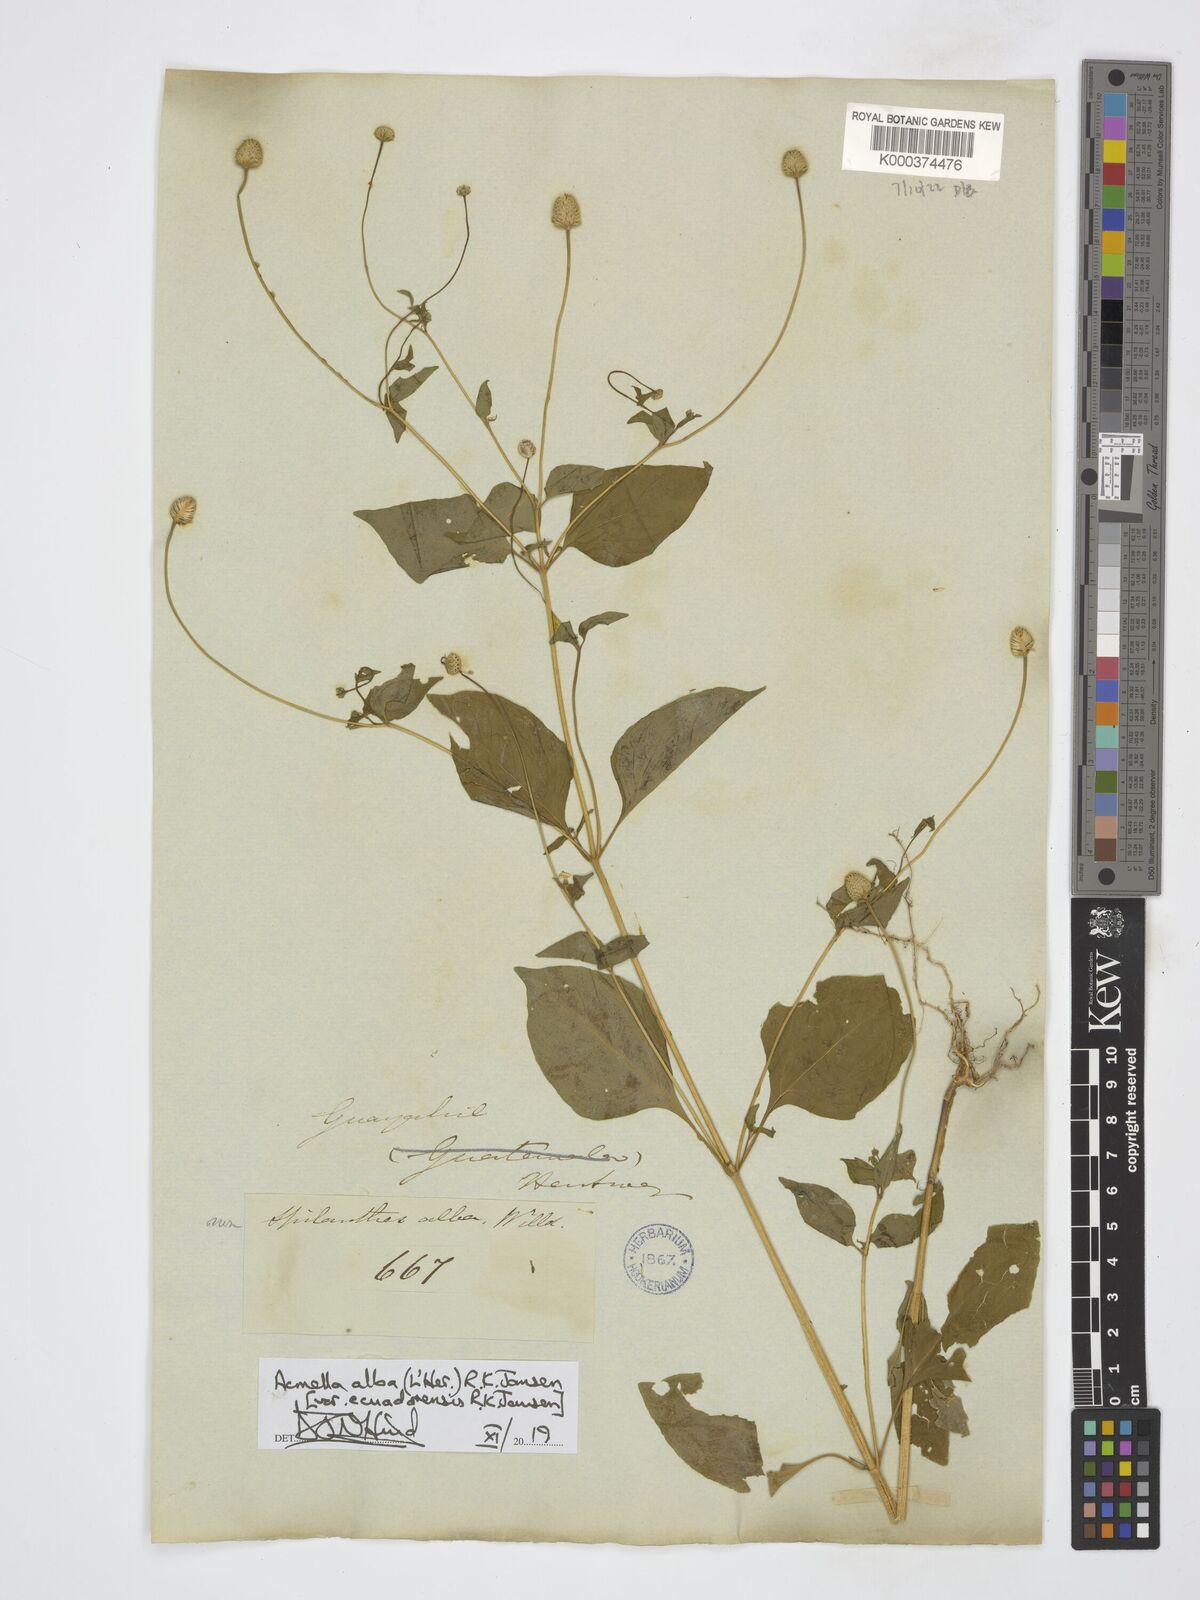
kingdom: Plantae
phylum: Tracheophyta
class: Magnoliopsida
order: Asterales
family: Asteraceae
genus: Acmella
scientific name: Acmella alba
